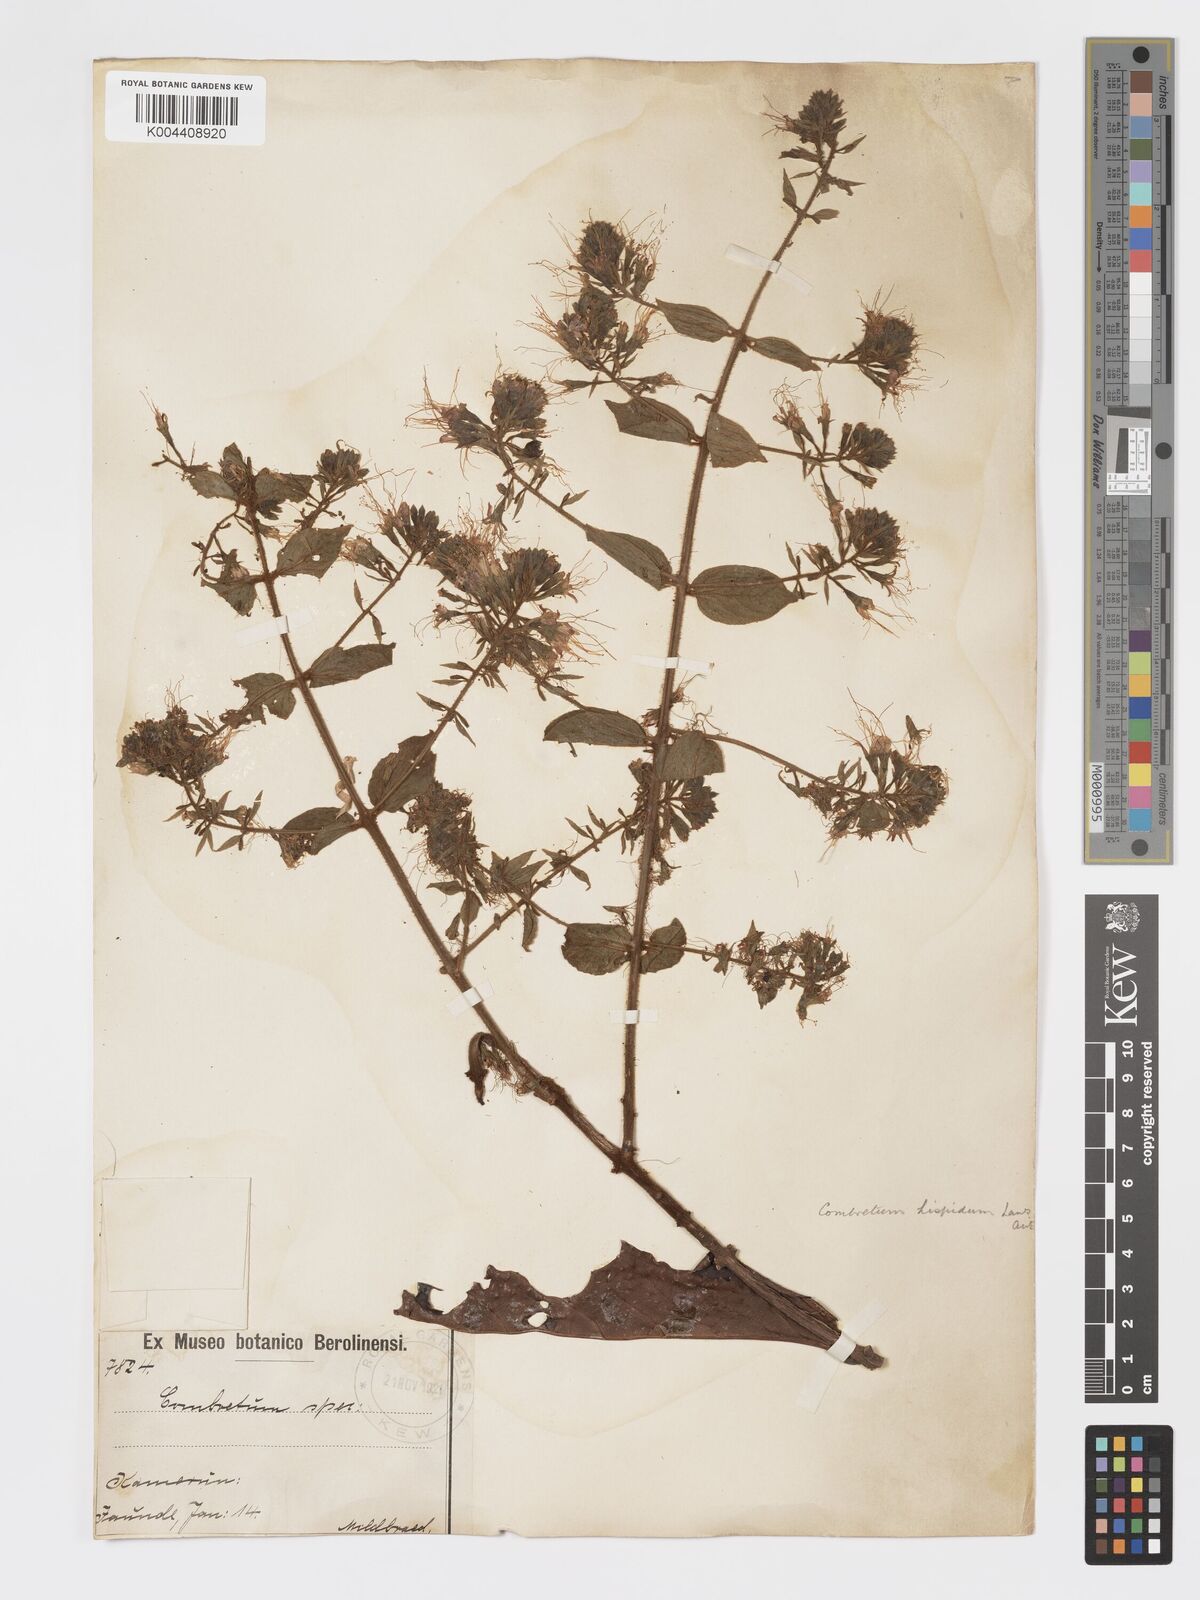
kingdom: Plantae
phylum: Tracheophyta
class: Magnoliopsida
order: Myrtales
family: Combretaceae
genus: Combretum
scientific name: Combretum
